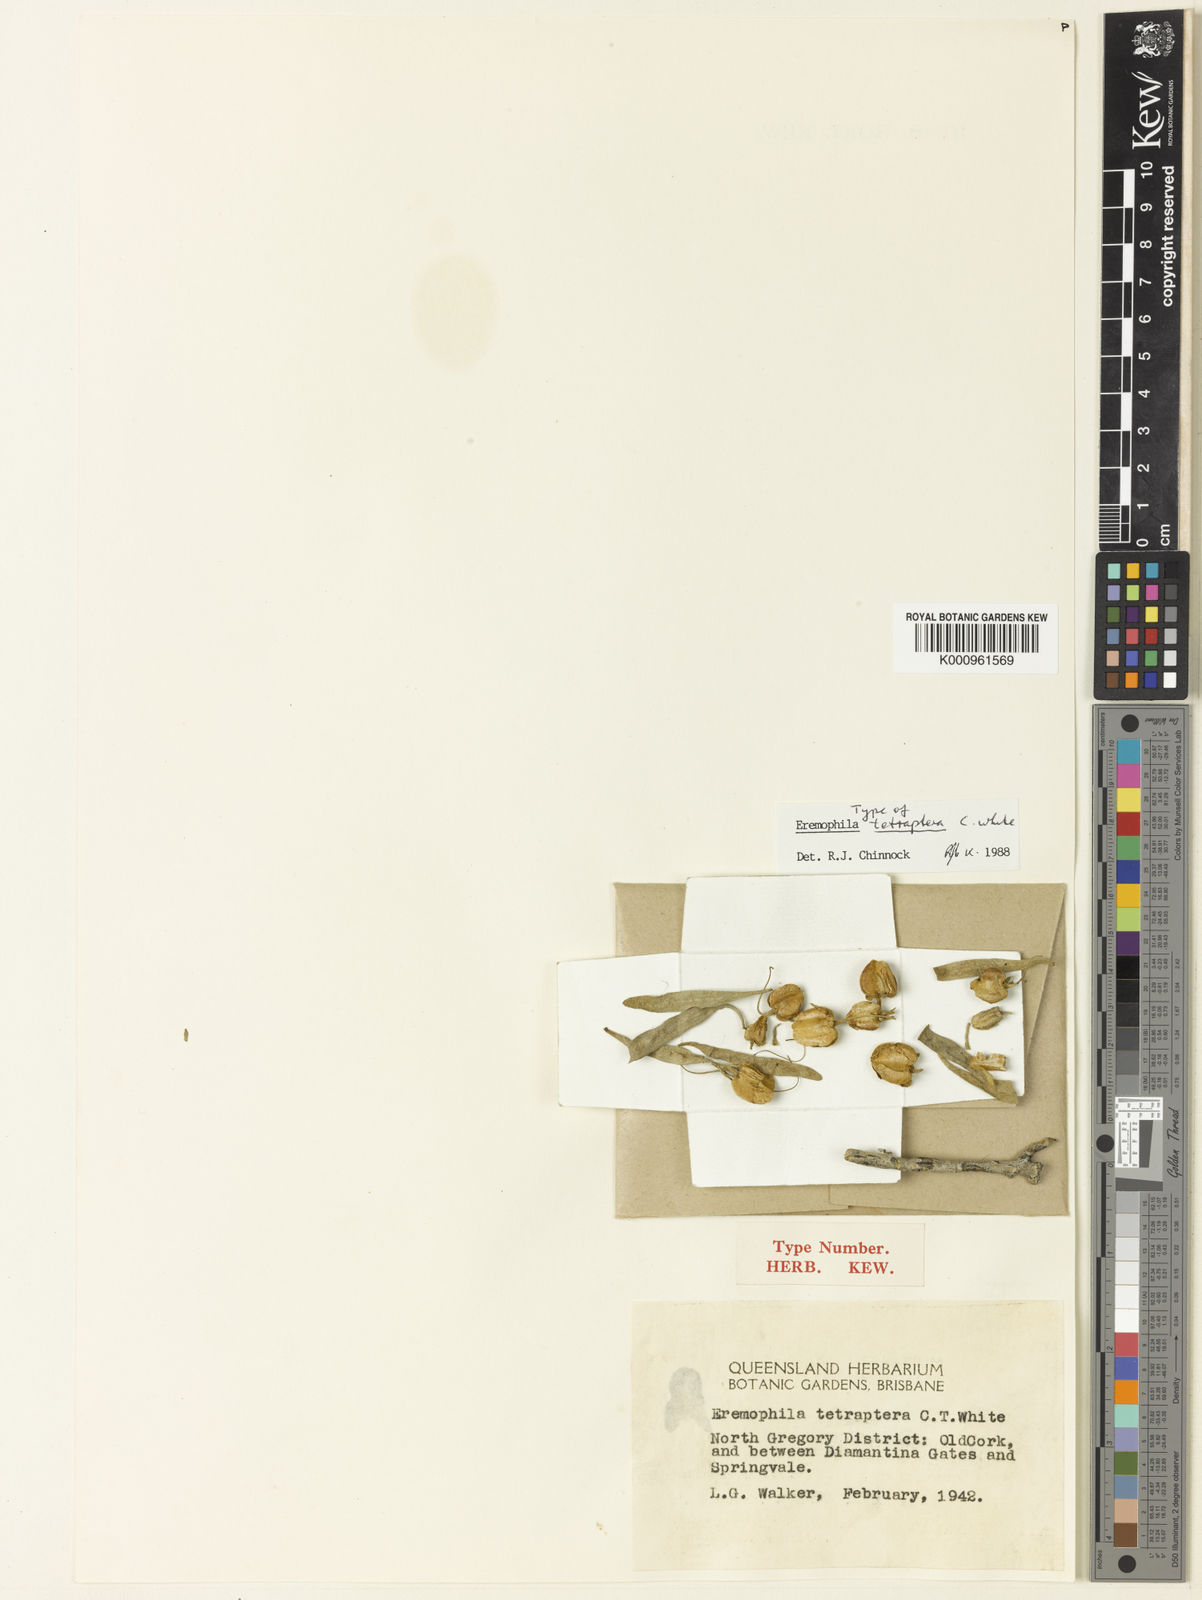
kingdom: Plantae
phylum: Tracheophyta
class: Magnoliopsida
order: Lamiales
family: Scrophulariaceae
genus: Eremophila
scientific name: Eremophila tetraptera
